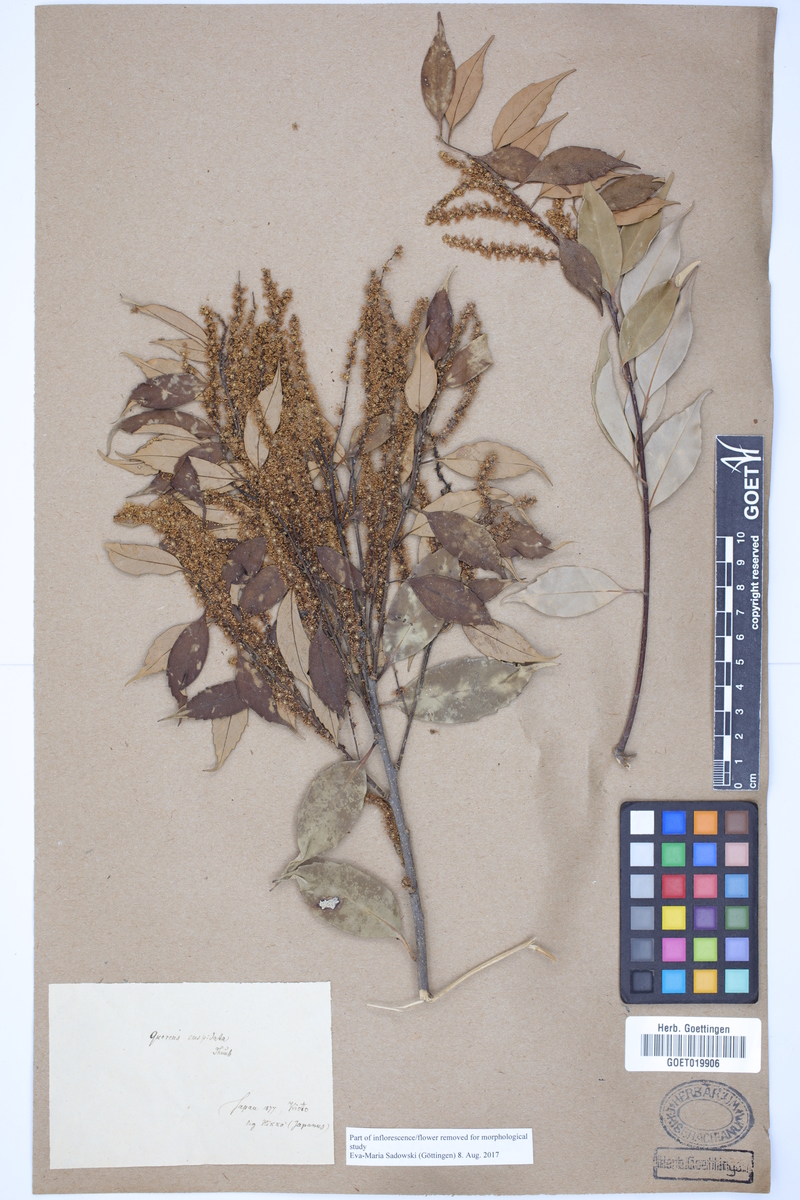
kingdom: Plantae
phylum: Tracheophyta
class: Magnoliopsida
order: Fagales
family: Fagaceae
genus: Castanopsis
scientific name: Castanopsis cuspidata
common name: Japanese chinquapin
